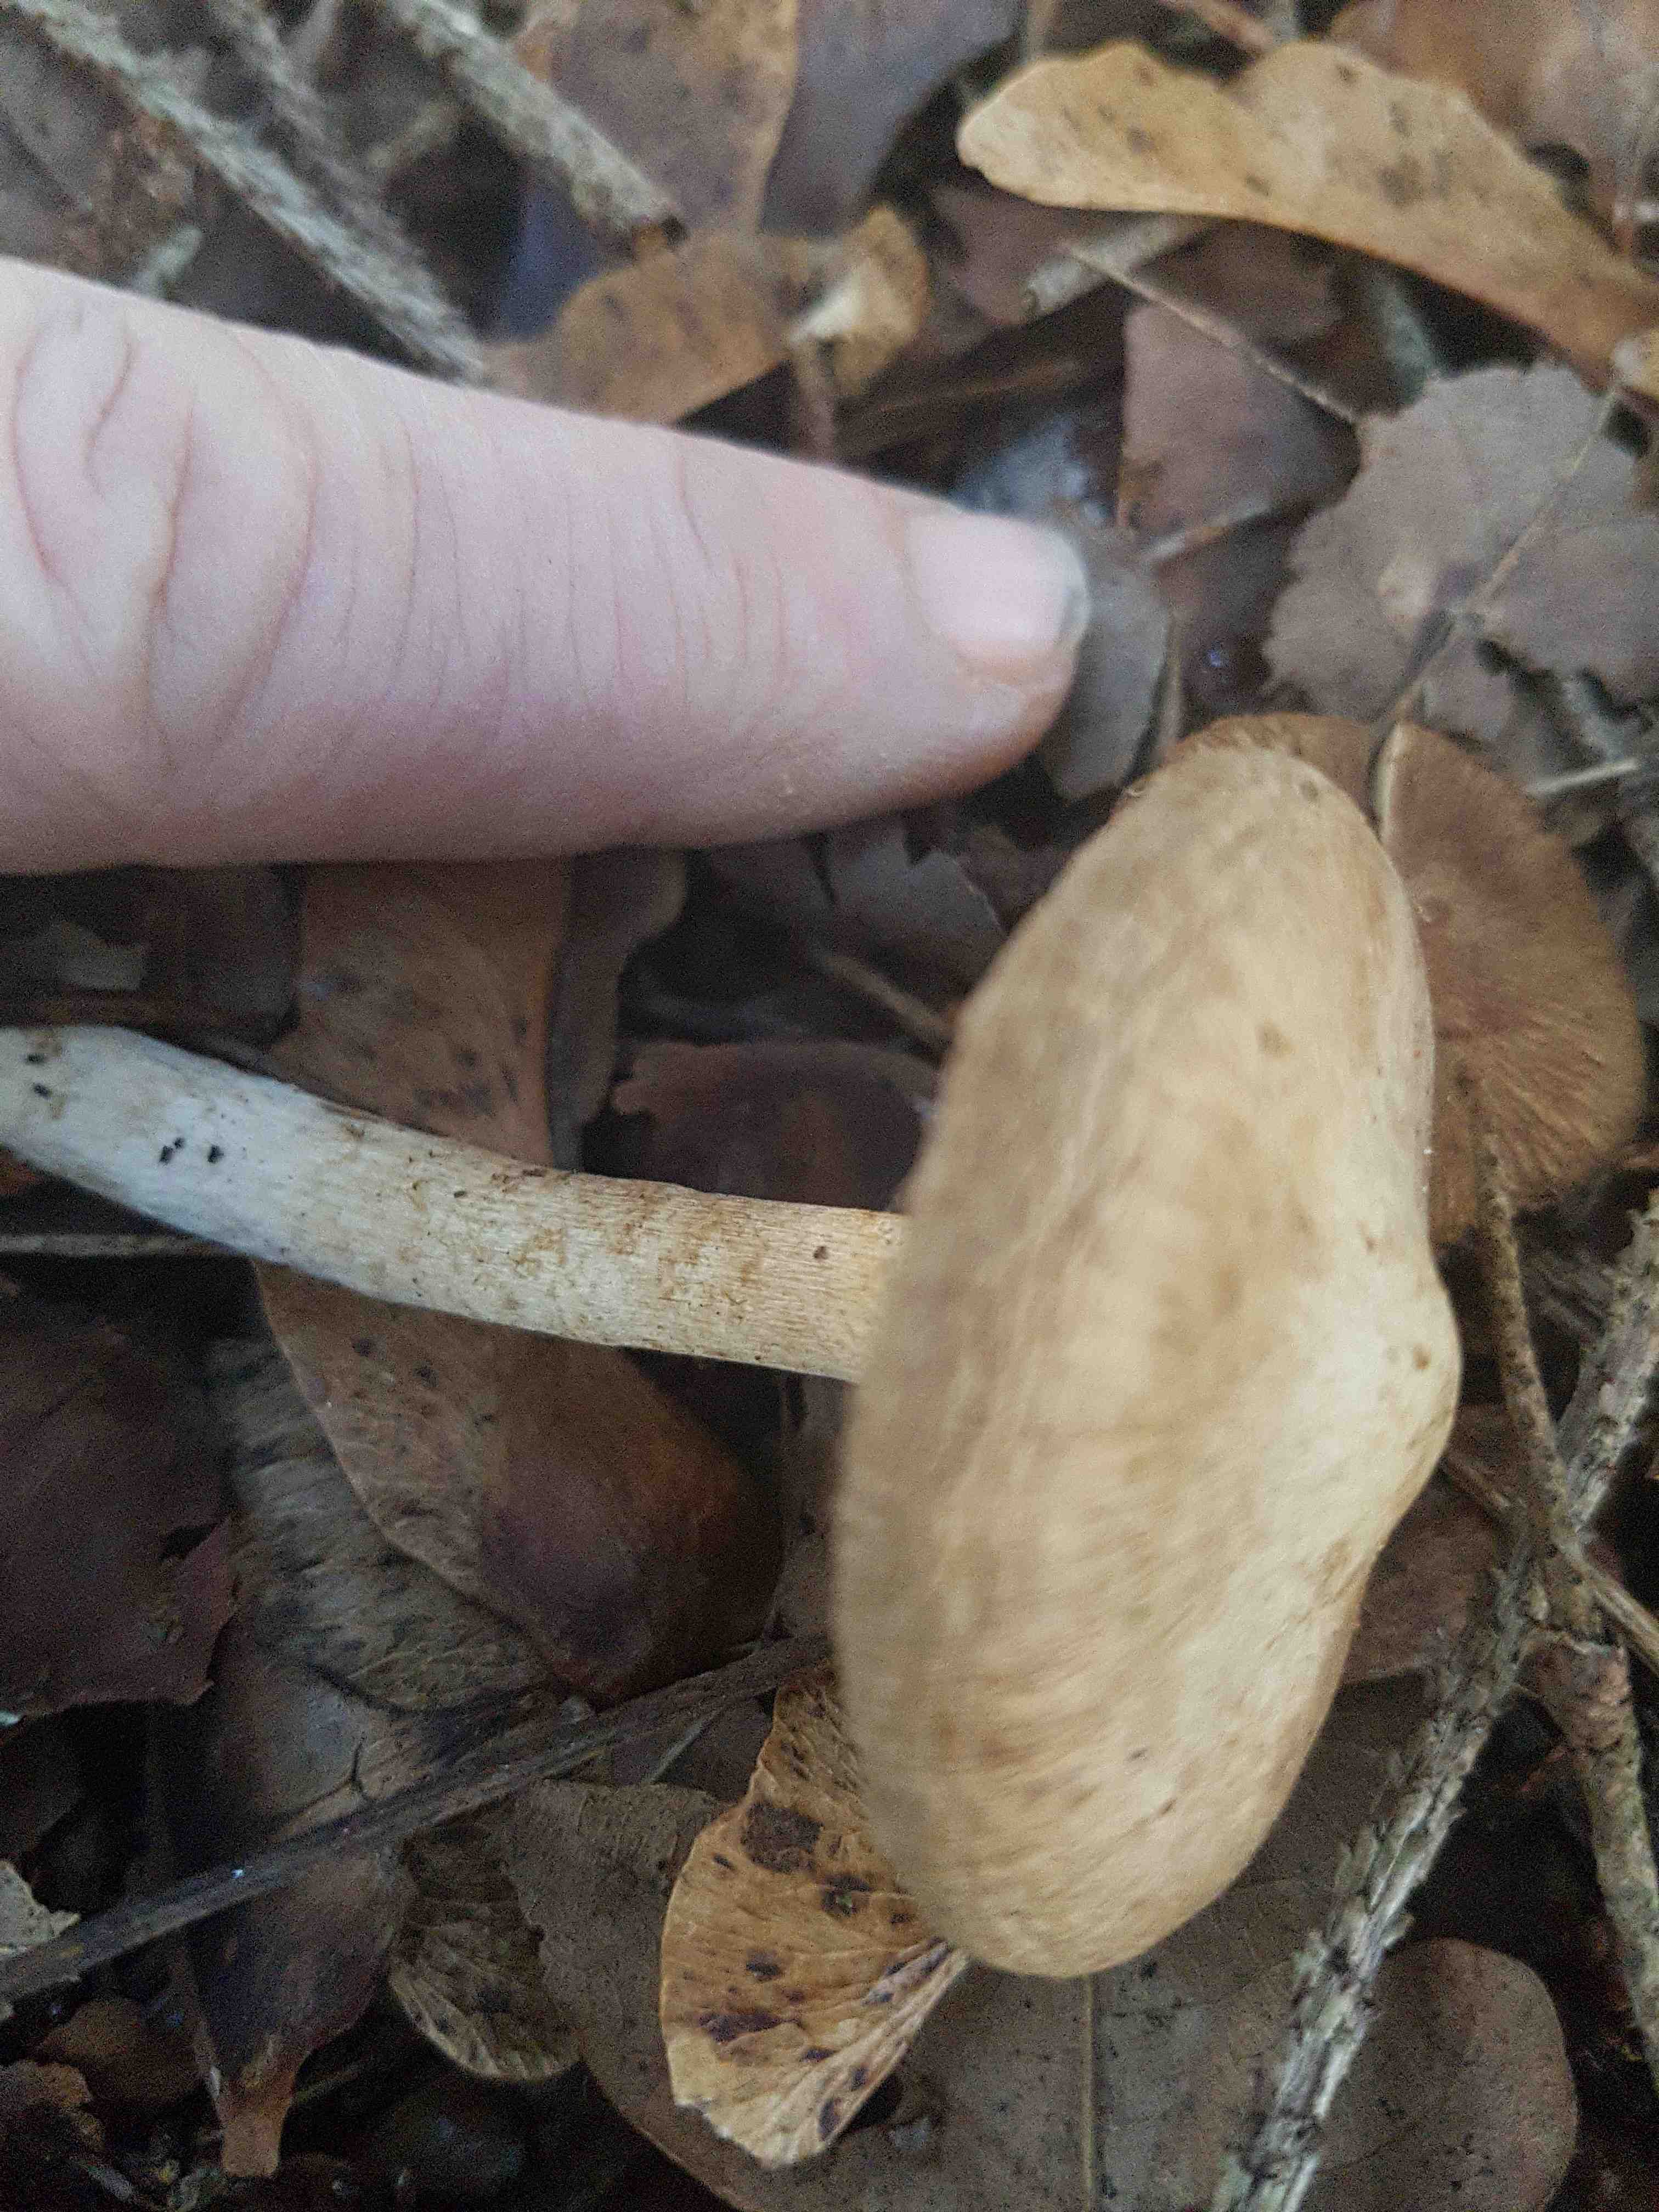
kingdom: Fungi
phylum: Basidiomycota
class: Agaricomycetes
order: Agaricales
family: Inocybaceae
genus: Inocybe
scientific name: Inocybe
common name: trævlhat
